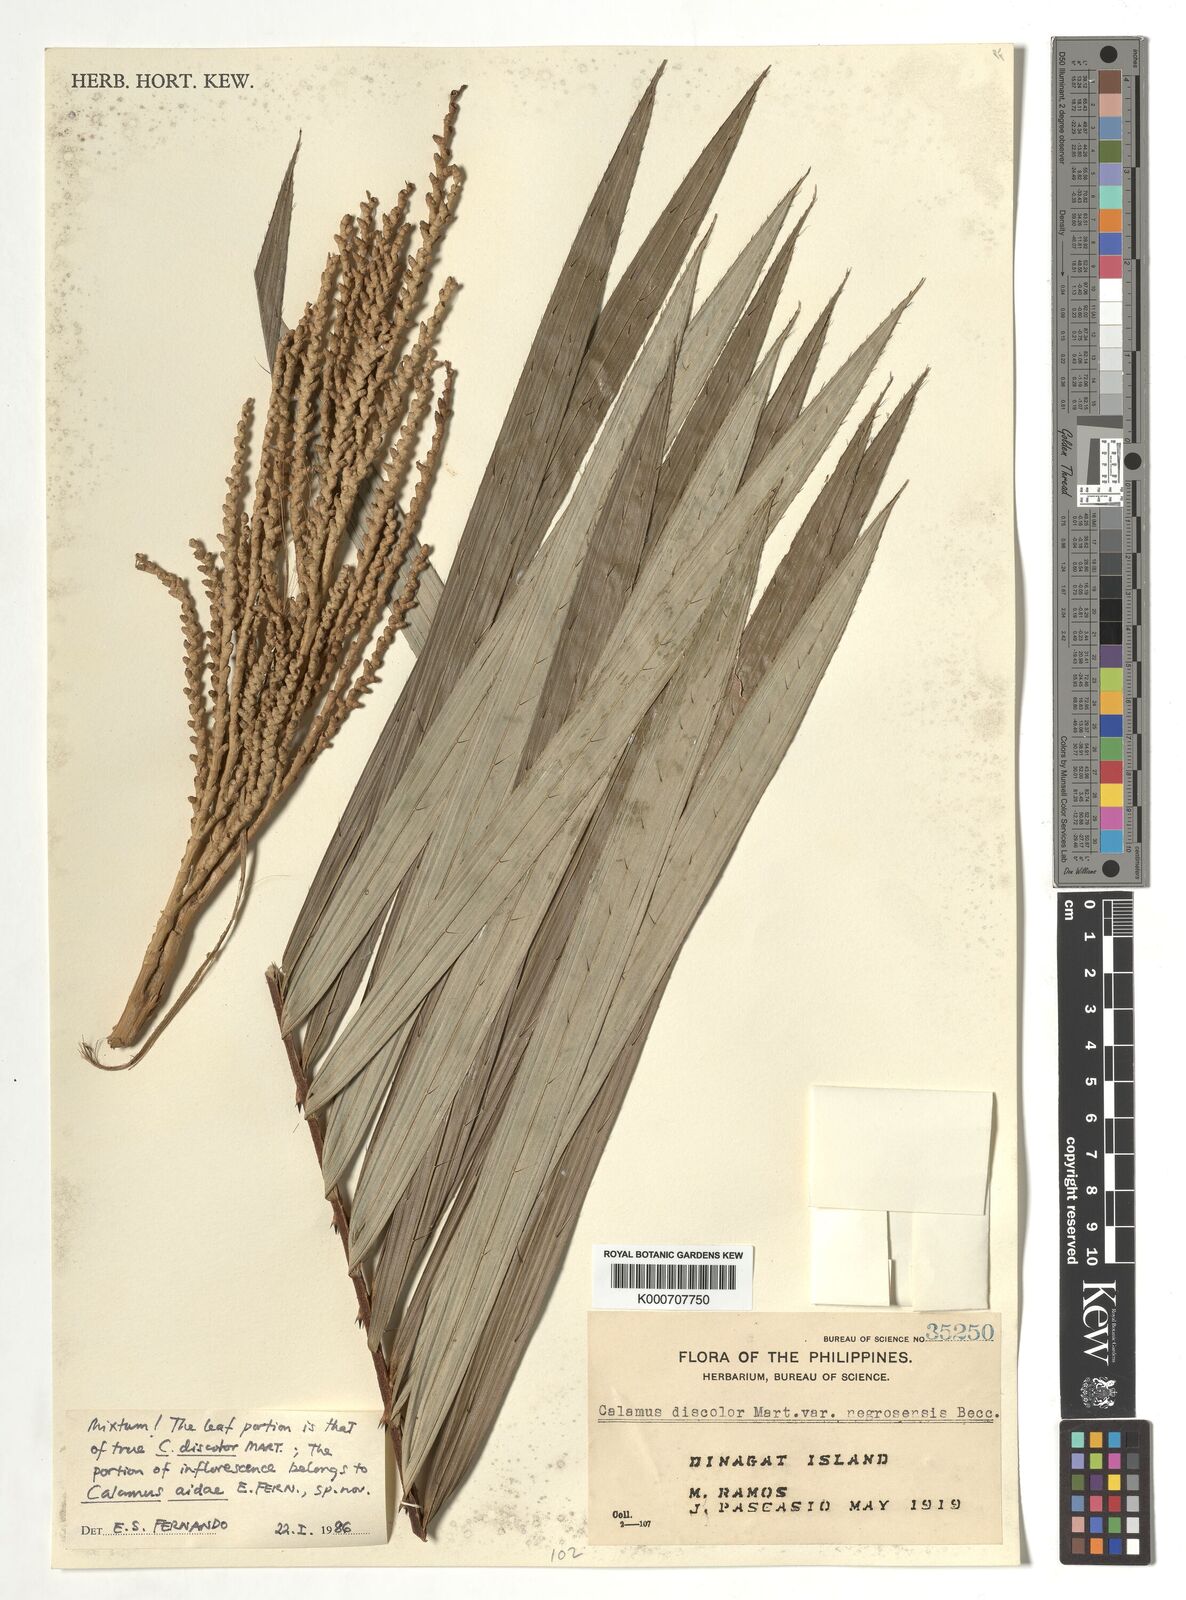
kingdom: Plantae
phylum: Tracheophyta
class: Liliopsida
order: Arecales
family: Arecaceae
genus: Calamus
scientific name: Calamus aidae
